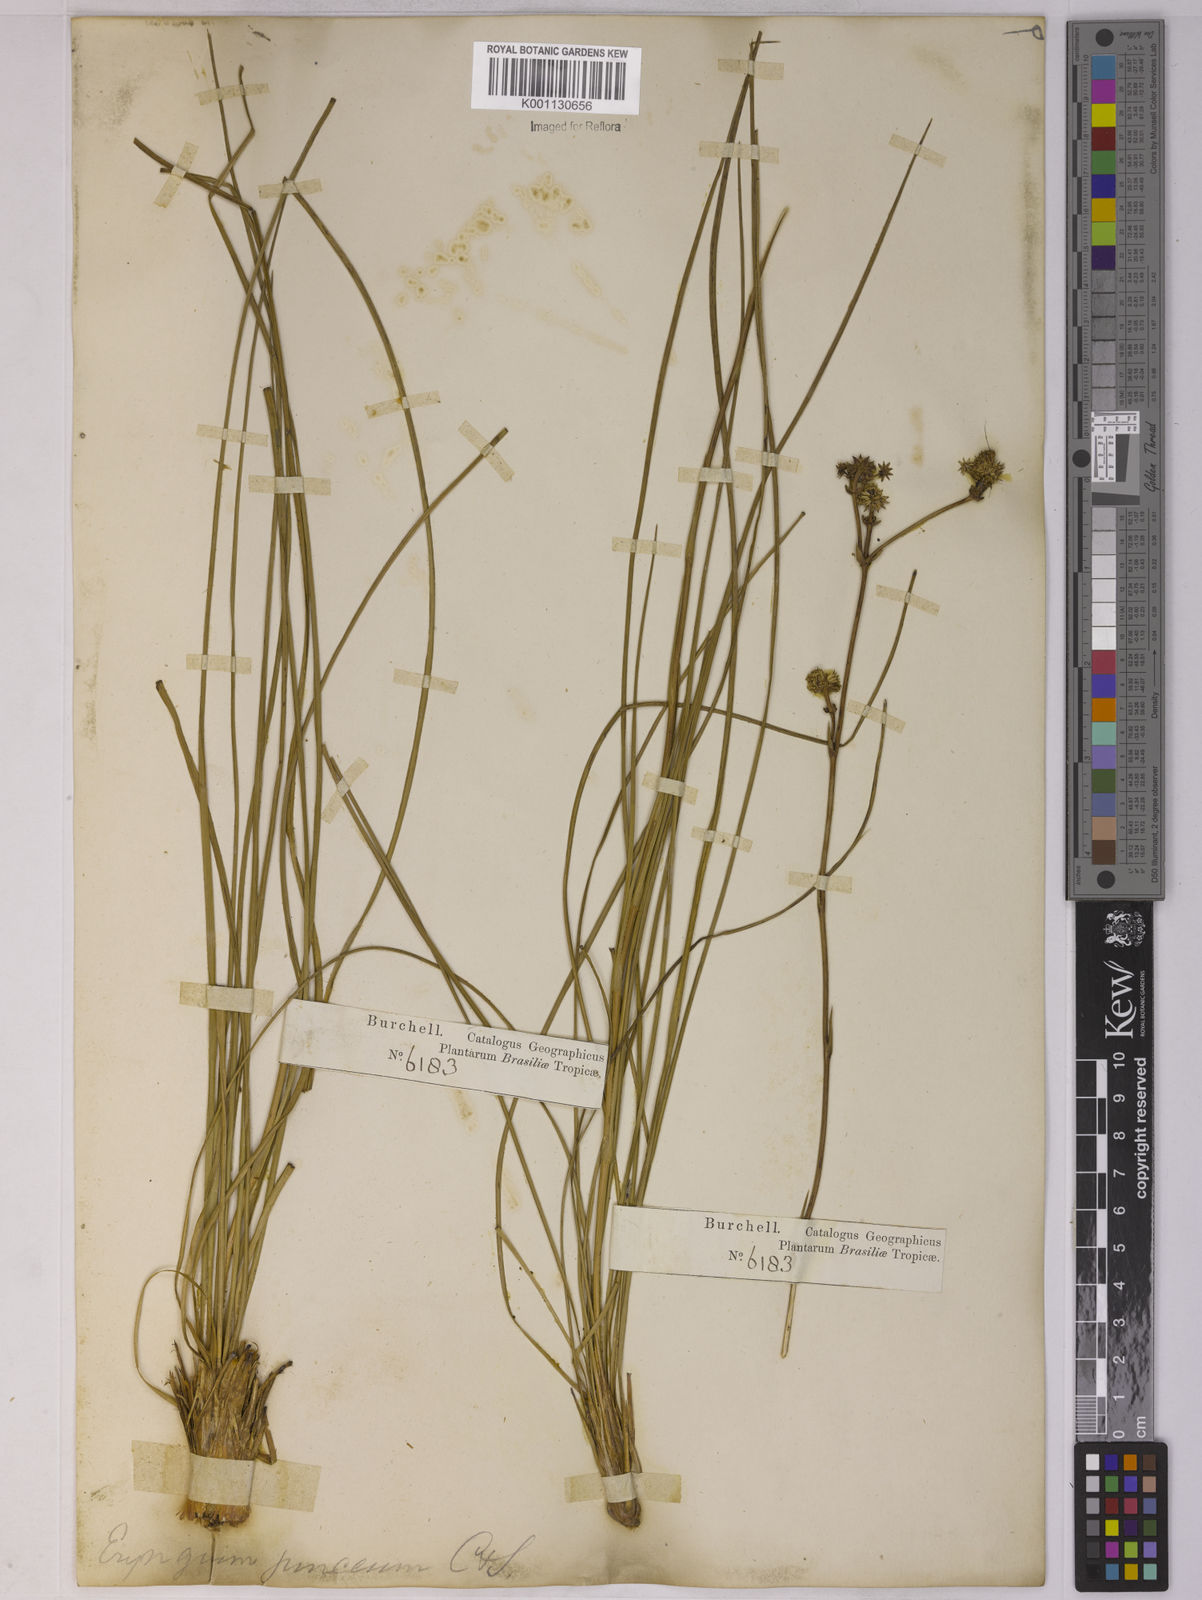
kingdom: Plantae
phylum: Tracheophyta
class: Magnoliopsida
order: Apiales
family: Apiaceae
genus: Eryngium
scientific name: Eryngium junceum
